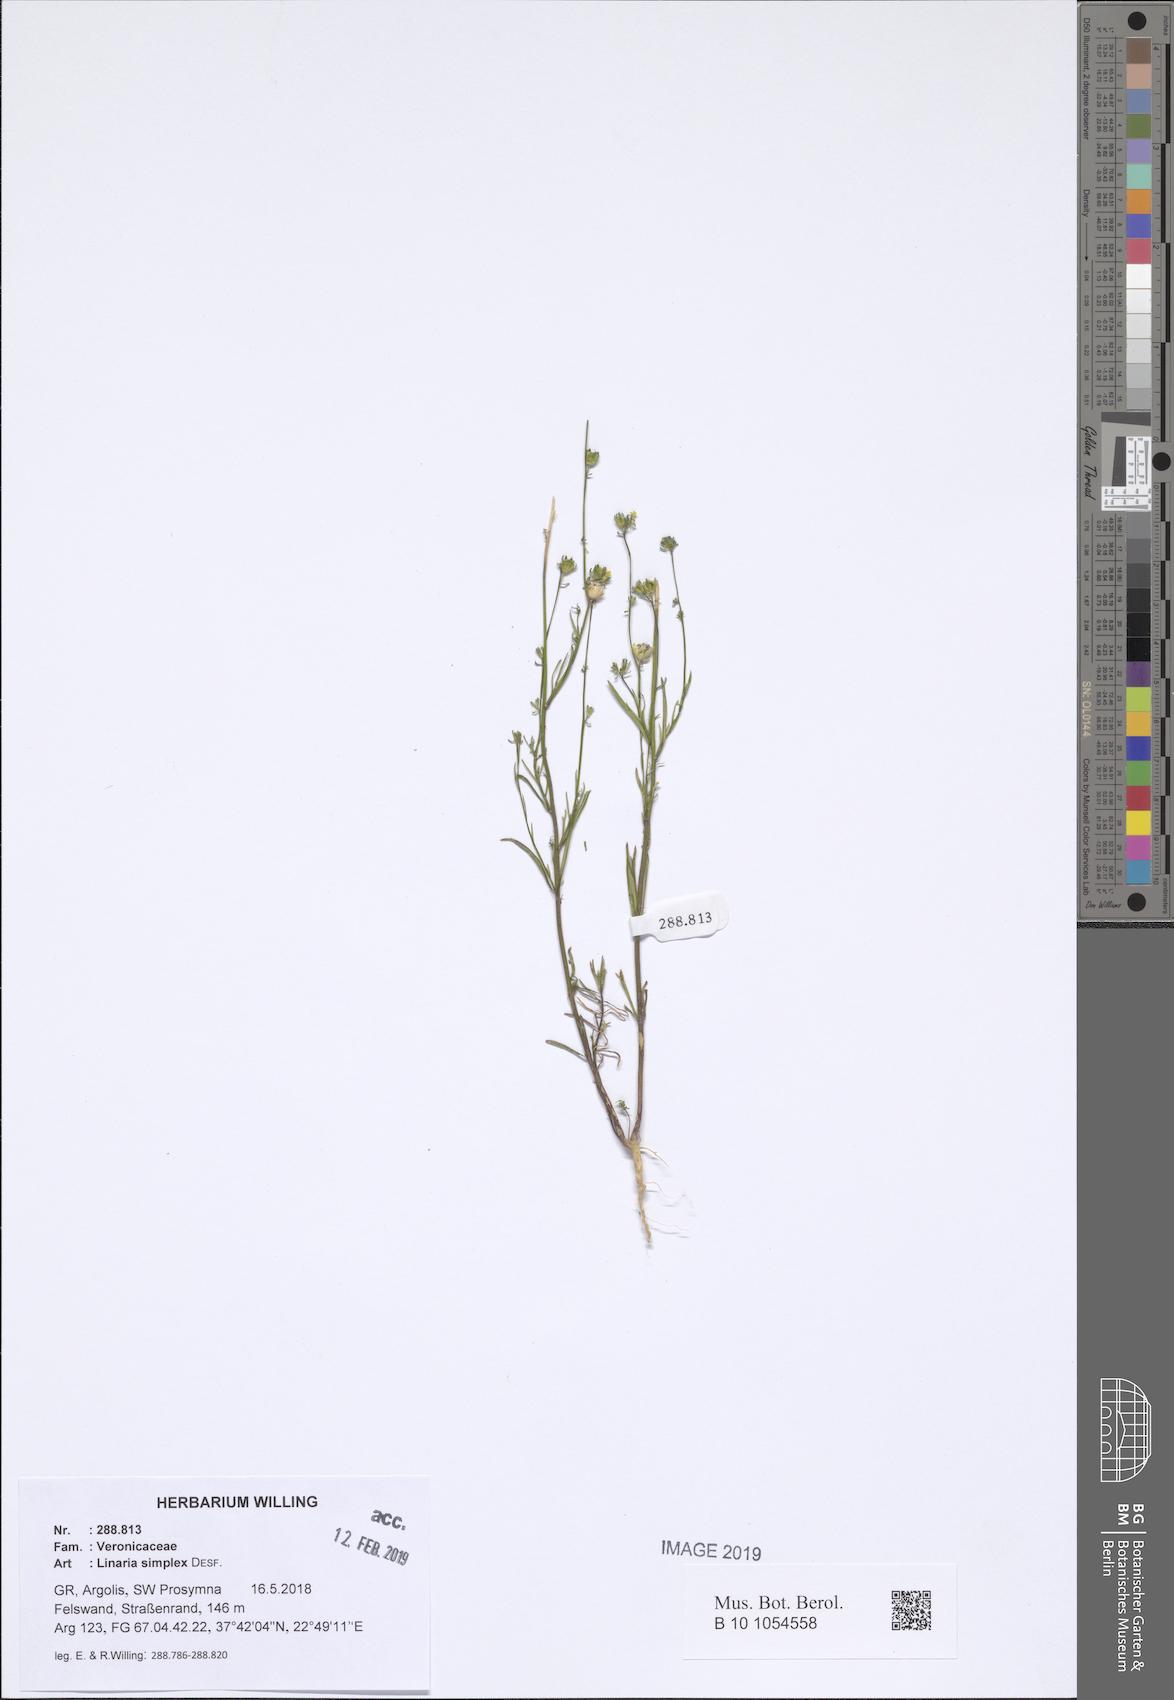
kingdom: Plantae
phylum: Tracheophyta
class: Magnoliopsida
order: Lamiales
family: Plantaginaceae
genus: Linaria
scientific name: Linaria simplex
